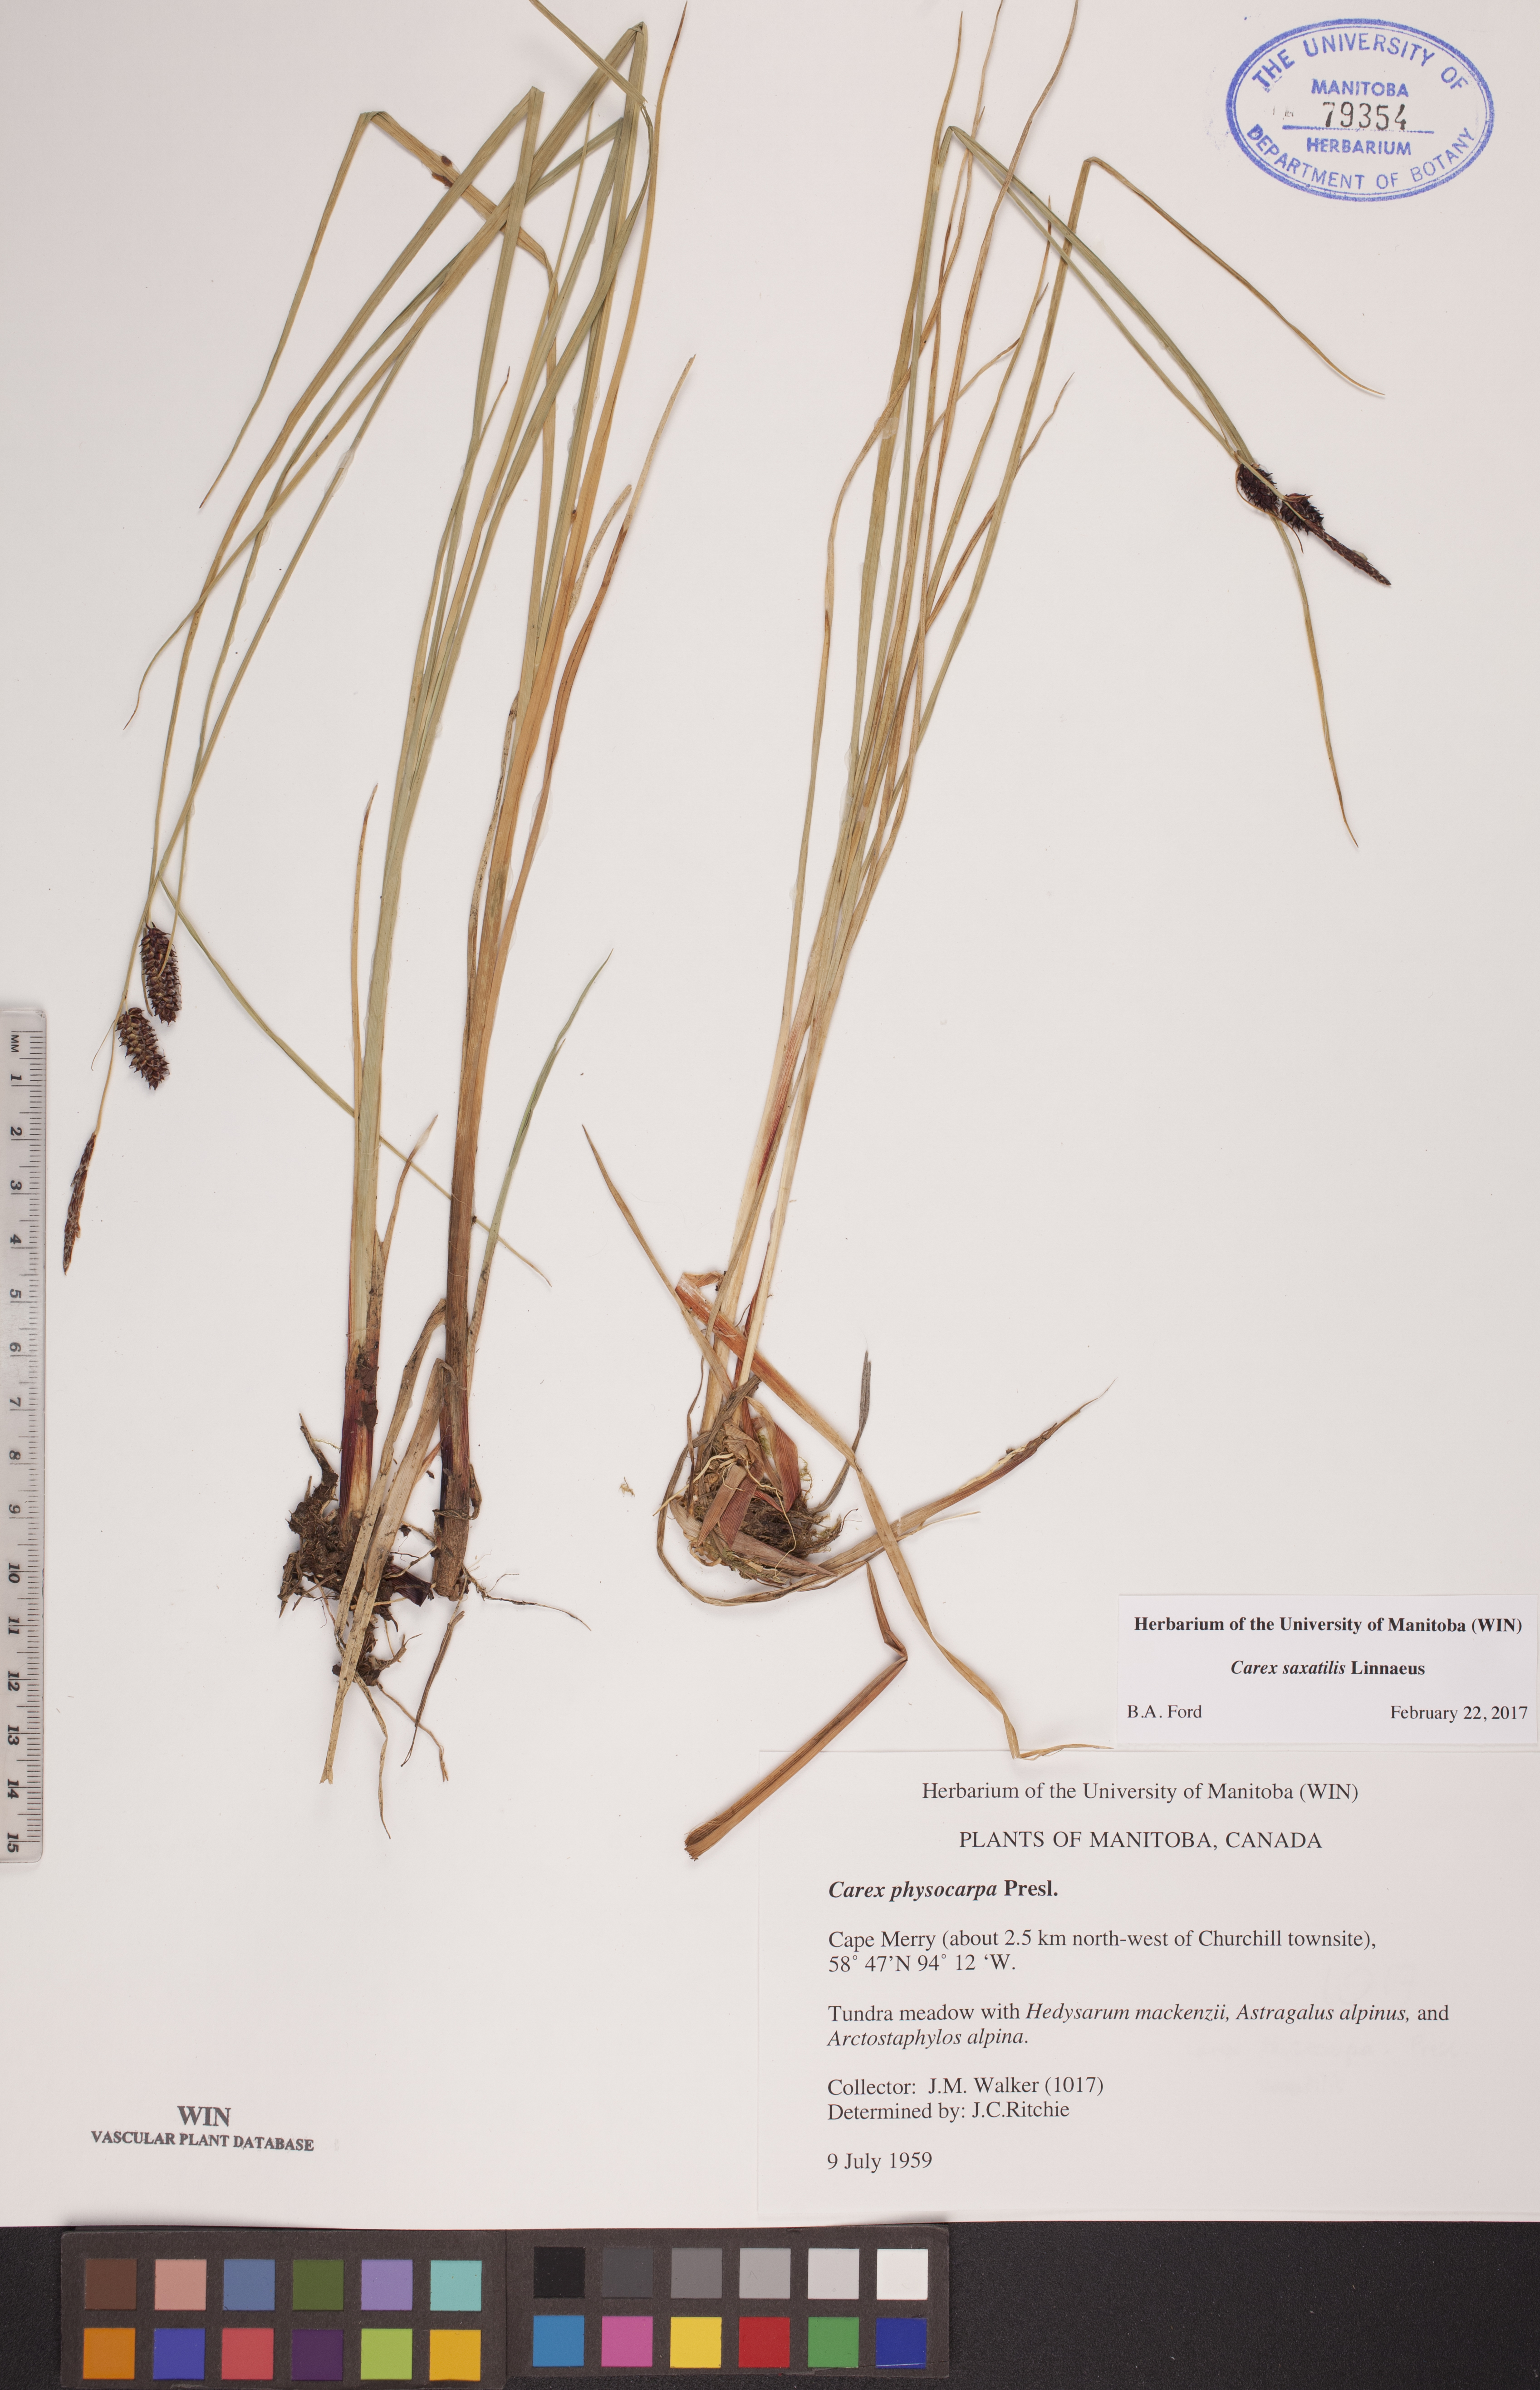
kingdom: Plantae
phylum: Tracheophyta
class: Liliopsida
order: Poales
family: Cyperaceae
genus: Carex
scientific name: Carex saxatilis
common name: Russet sedge
